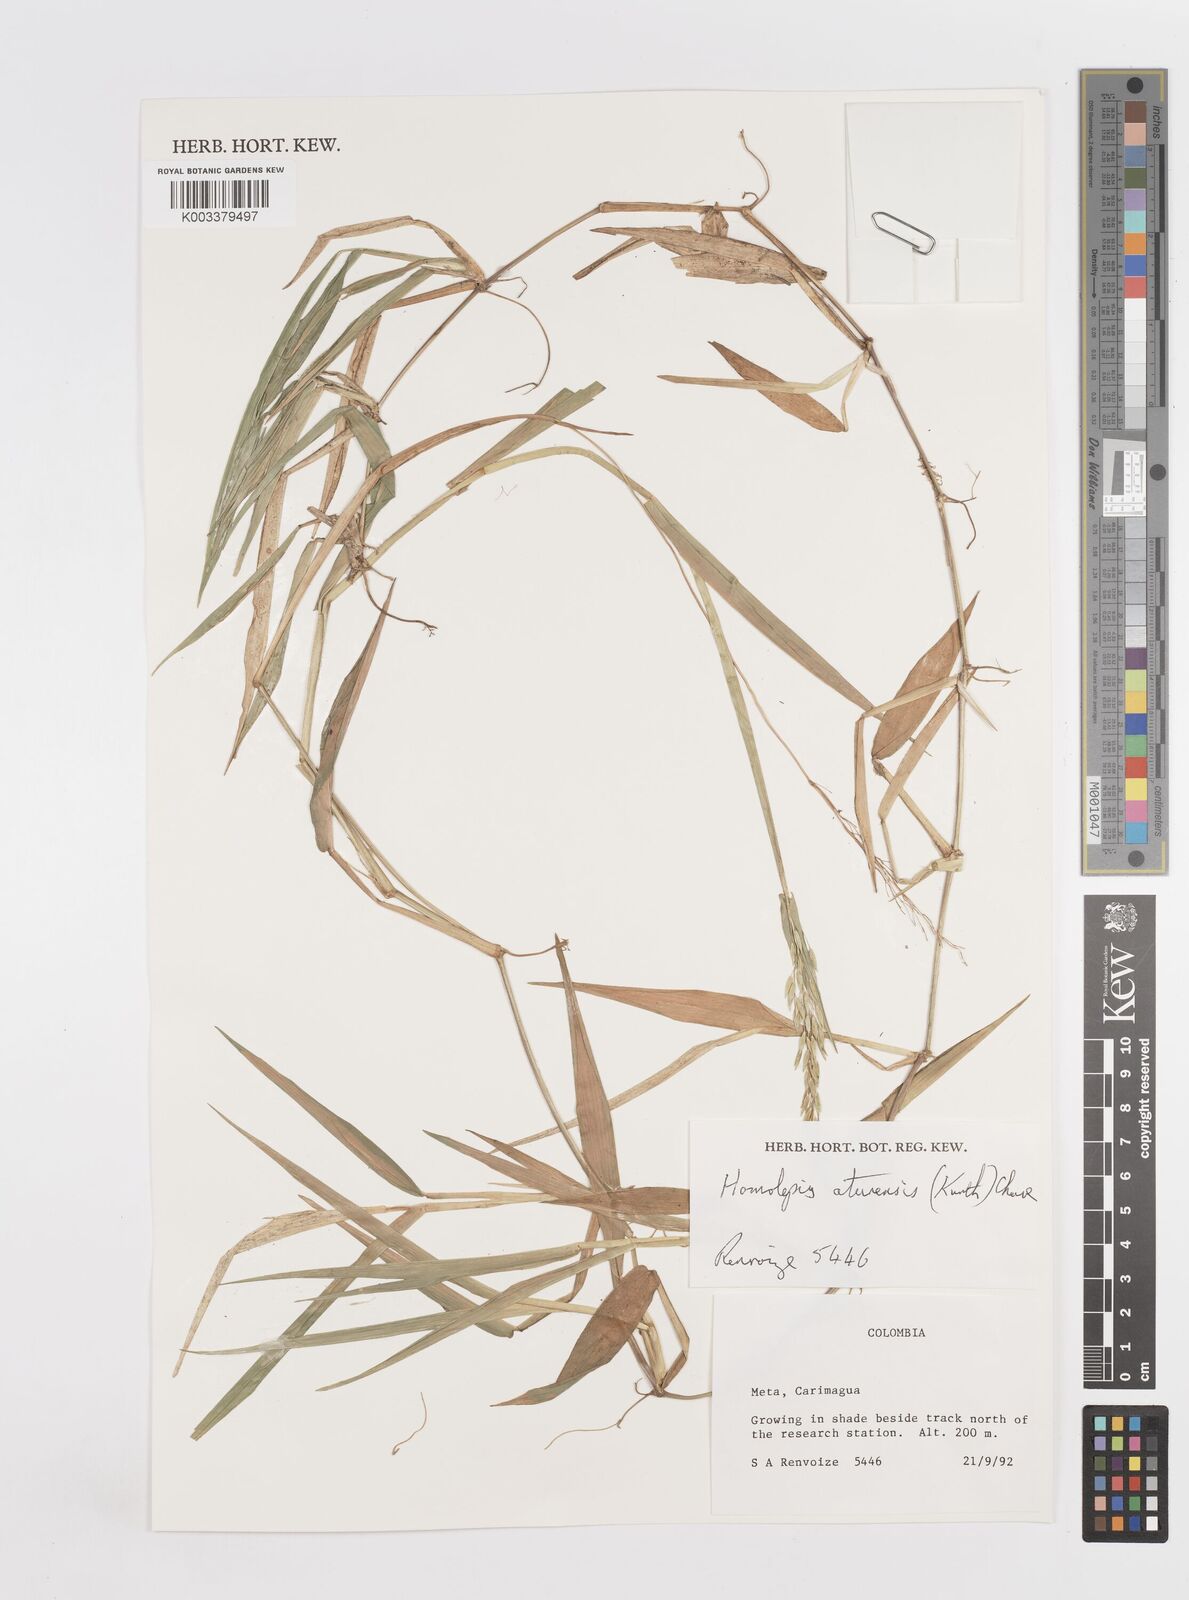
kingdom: Plantae
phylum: Tracheophyta
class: Liliopsida
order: Poales
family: Poaceae
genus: Homolepis
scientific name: Homolepis aturensis
